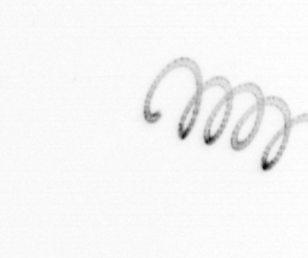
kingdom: Chromista
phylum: Ochrophyta
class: Bacillariophyceae
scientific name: Bacillariophyceae
